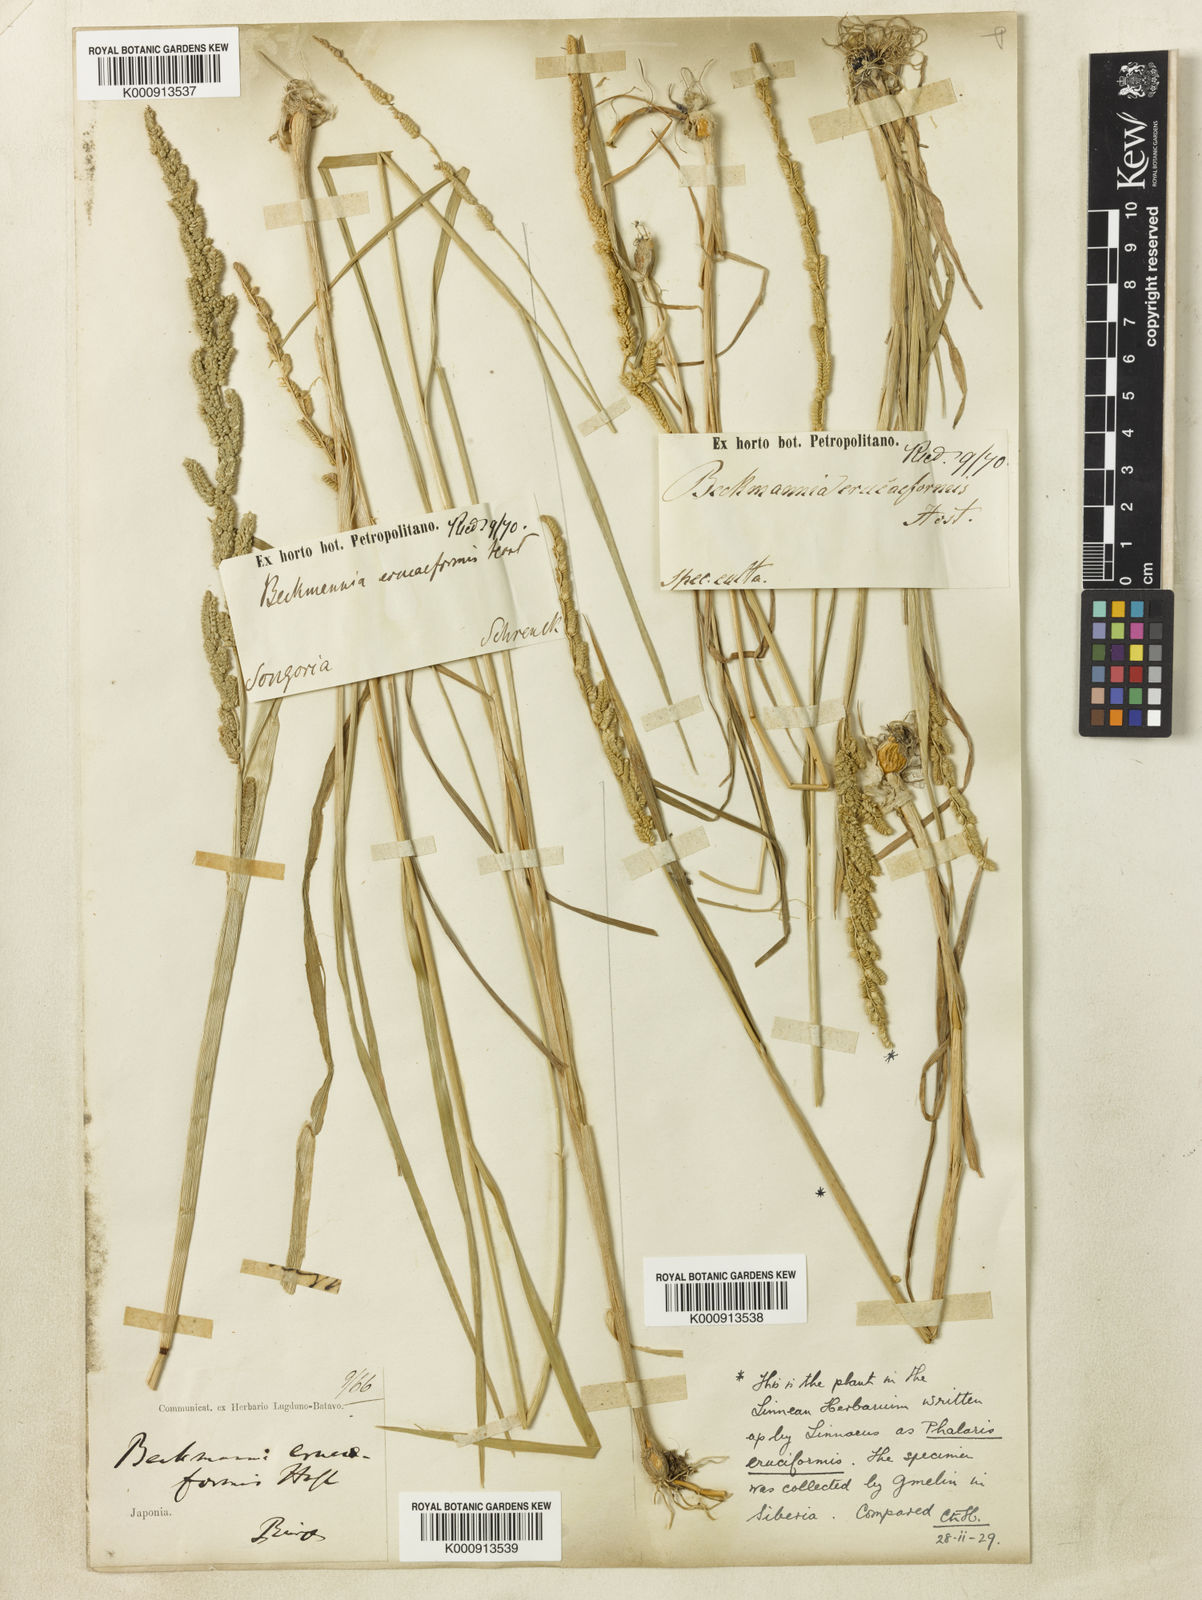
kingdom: Plantae
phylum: Tracheophyta
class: Liliopsida
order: Poales
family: Poaceae
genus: Beckmannia
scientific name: Beckmannia eruciformis
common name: European slough-grass
